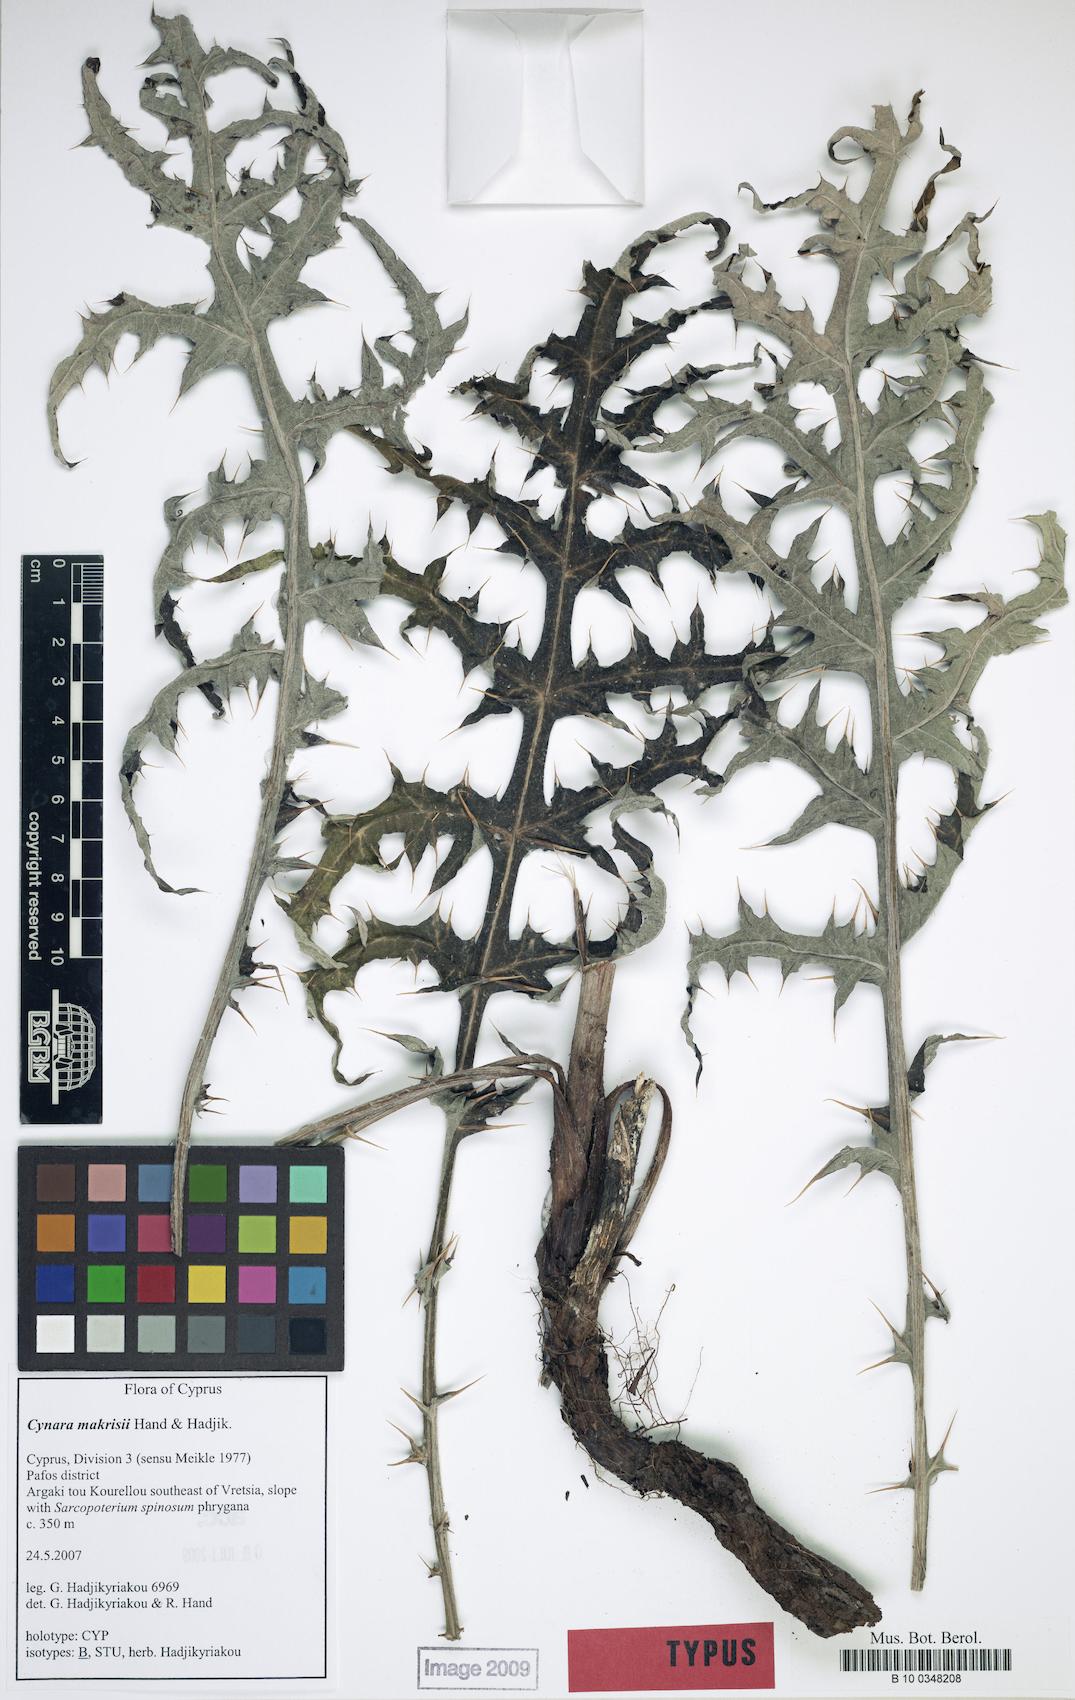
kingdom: Plantae
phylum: Tracheophyta
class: Magnoliopsida
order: Asterales
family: Asteraceae
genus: Cynara
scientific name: Cynara makrisii
